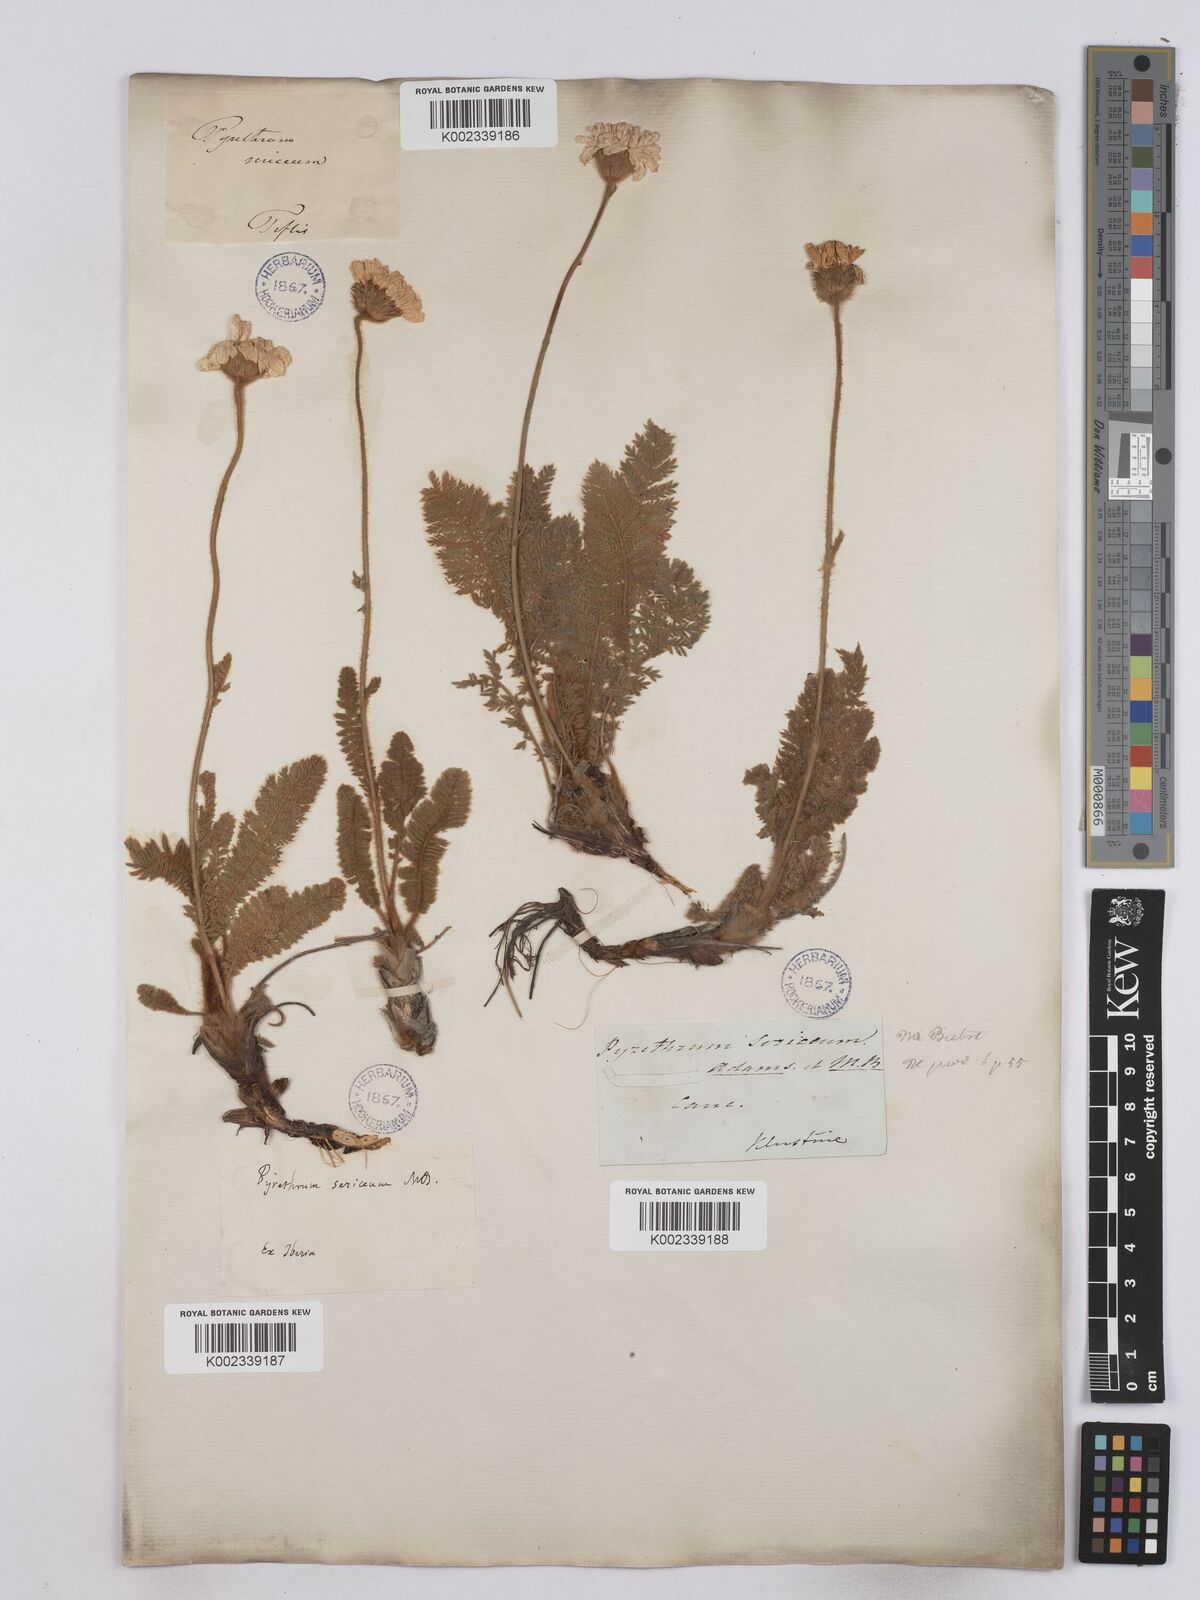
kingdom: Plantae
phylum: Tracheophyta
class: Magnoliopsida
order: Asterales
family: Asteraceae
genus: Tanacetum
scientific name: Tanacetum sericeum
